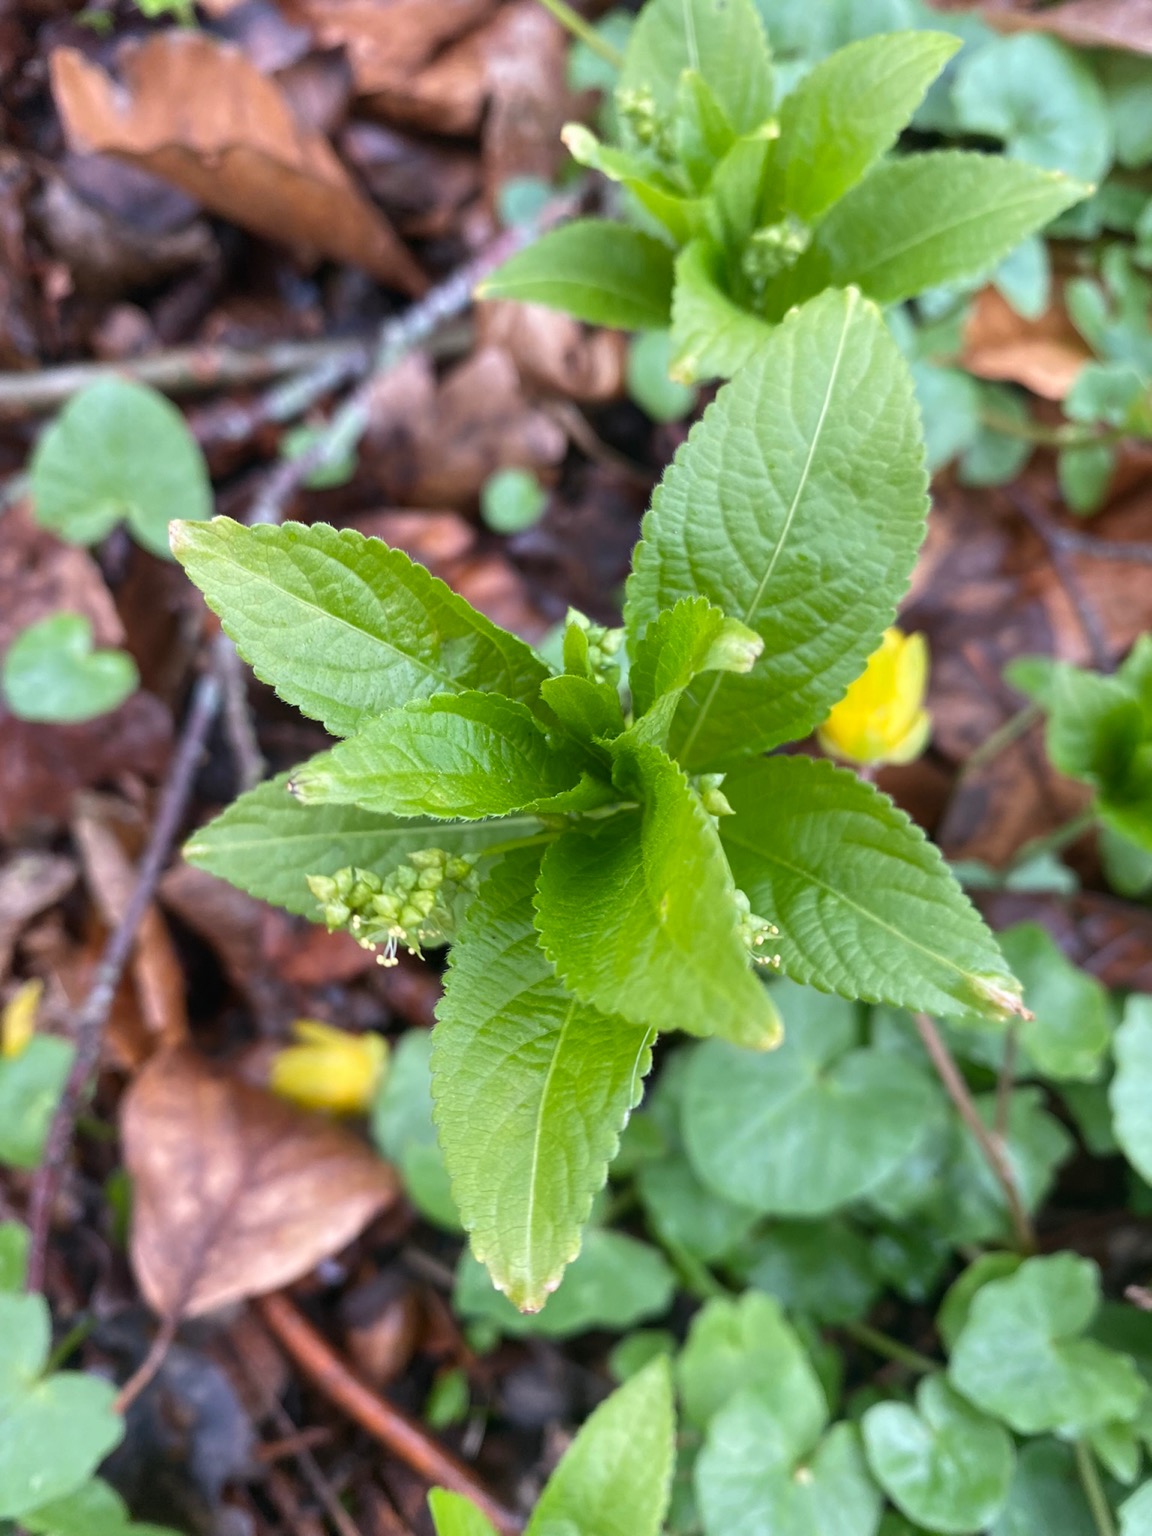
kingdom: Plantae
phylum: Tracheophyta
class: Magnoliopsida
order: Malpighiales
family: Euphorbiaceae
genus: Mercurialis
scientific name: Mercurialis perennis
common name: Almindelig bingelurt
